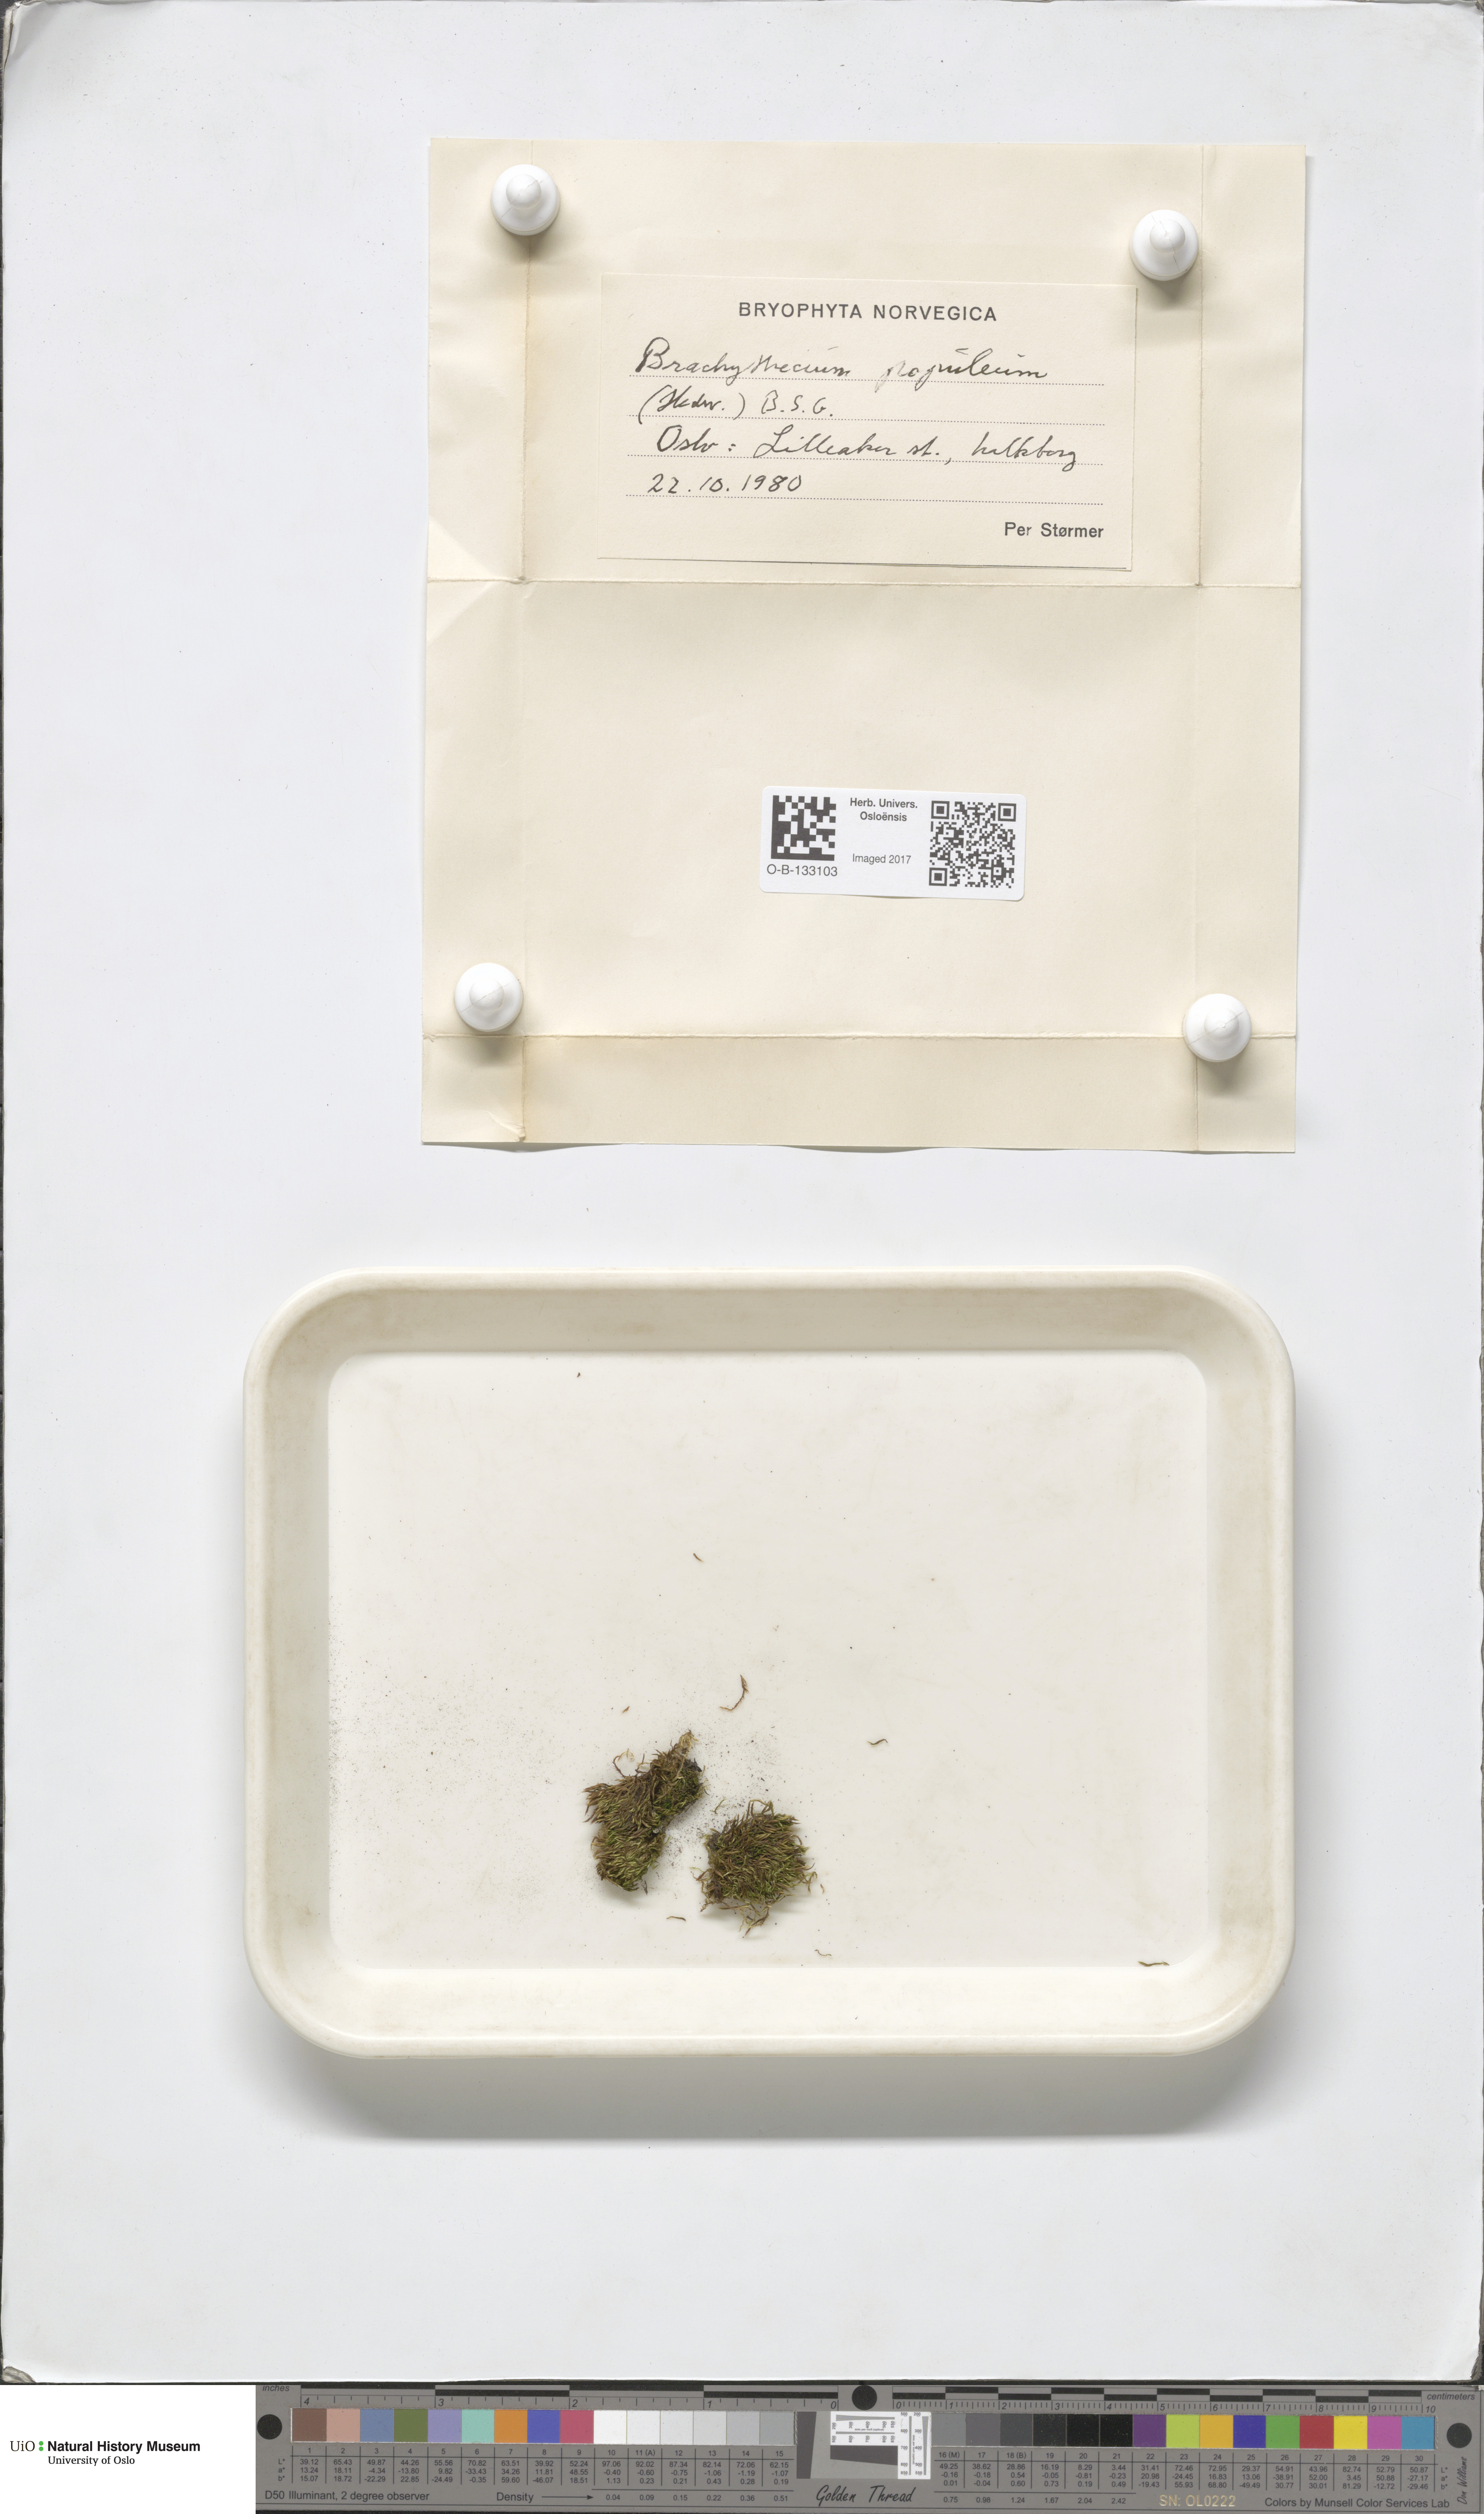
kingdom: Plantae
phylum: Bryophyta
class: Bryopsida
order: Hypnales
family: Brachytheciaceae
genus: Sciuro-hypnum
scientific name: Sciuro-hypnum plumosum
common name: Rusty feather-moss
